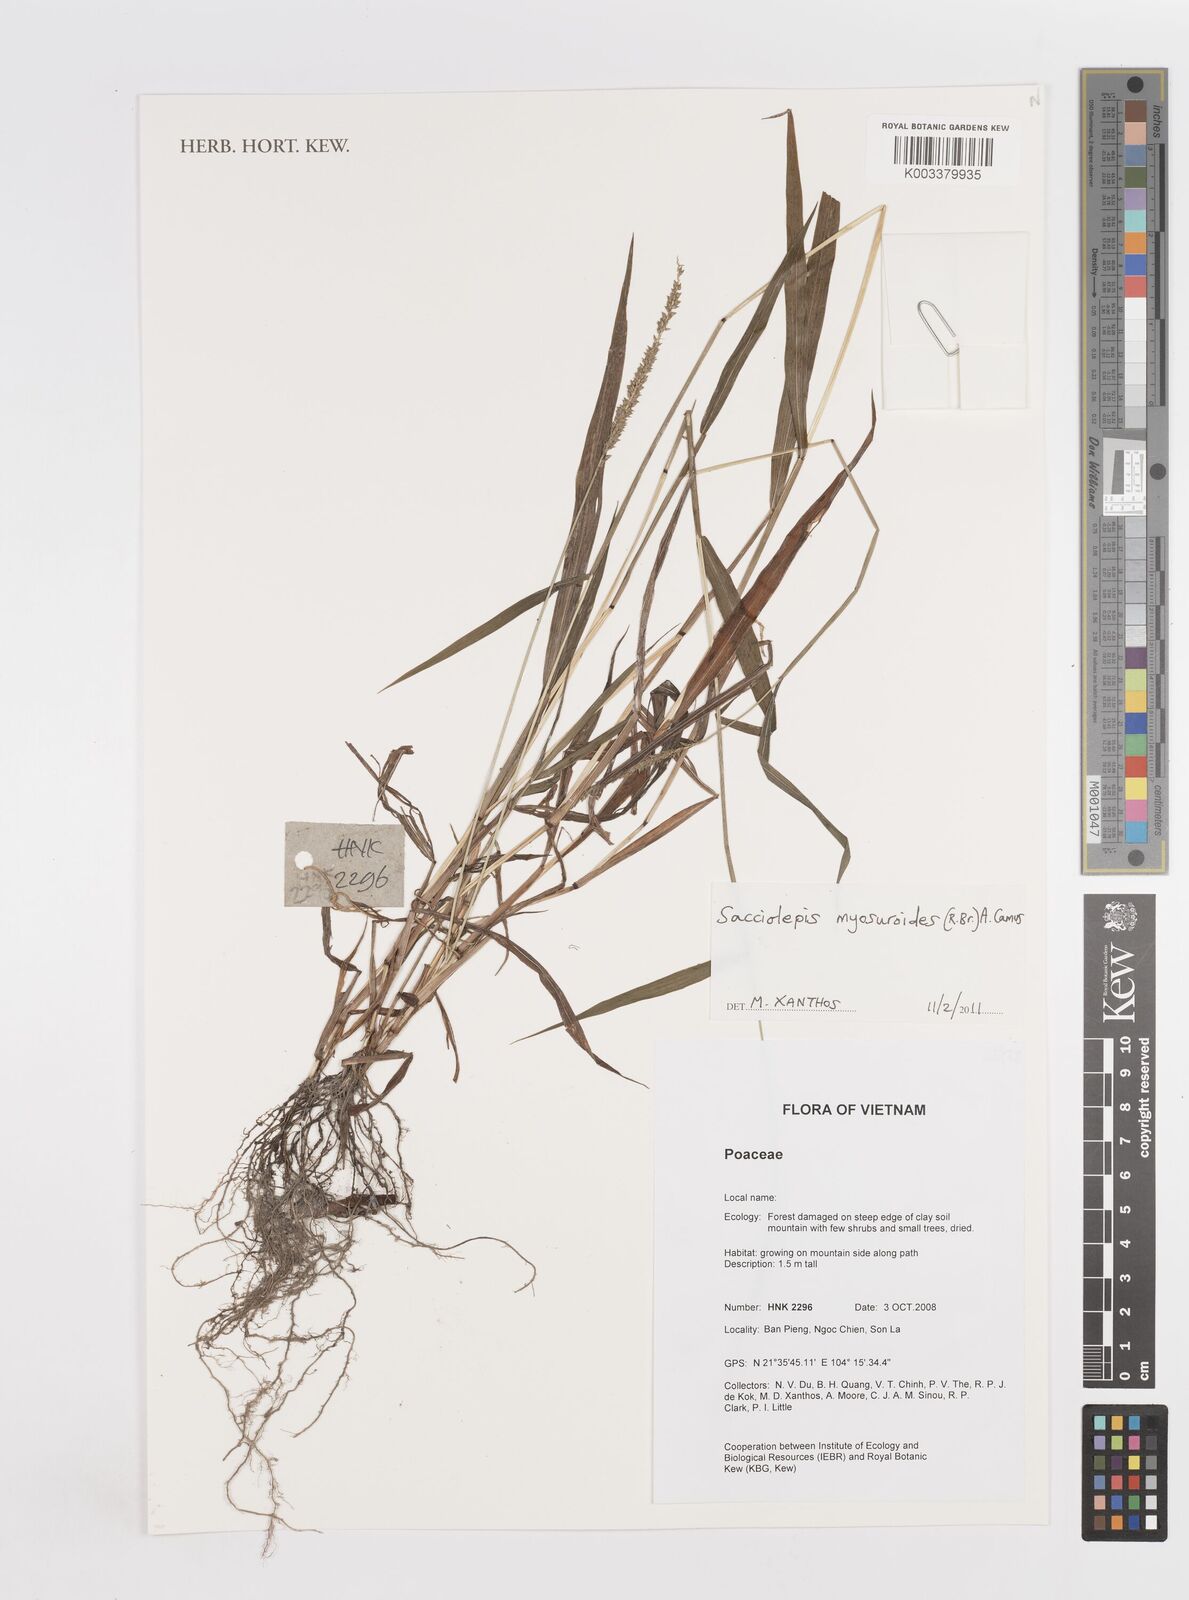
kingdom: Plantae
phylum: Tracheophyta
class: Liliopsida
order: Poales
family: Poaceae
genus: Sacciolepis
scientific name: Sacciolepis myosuroides
